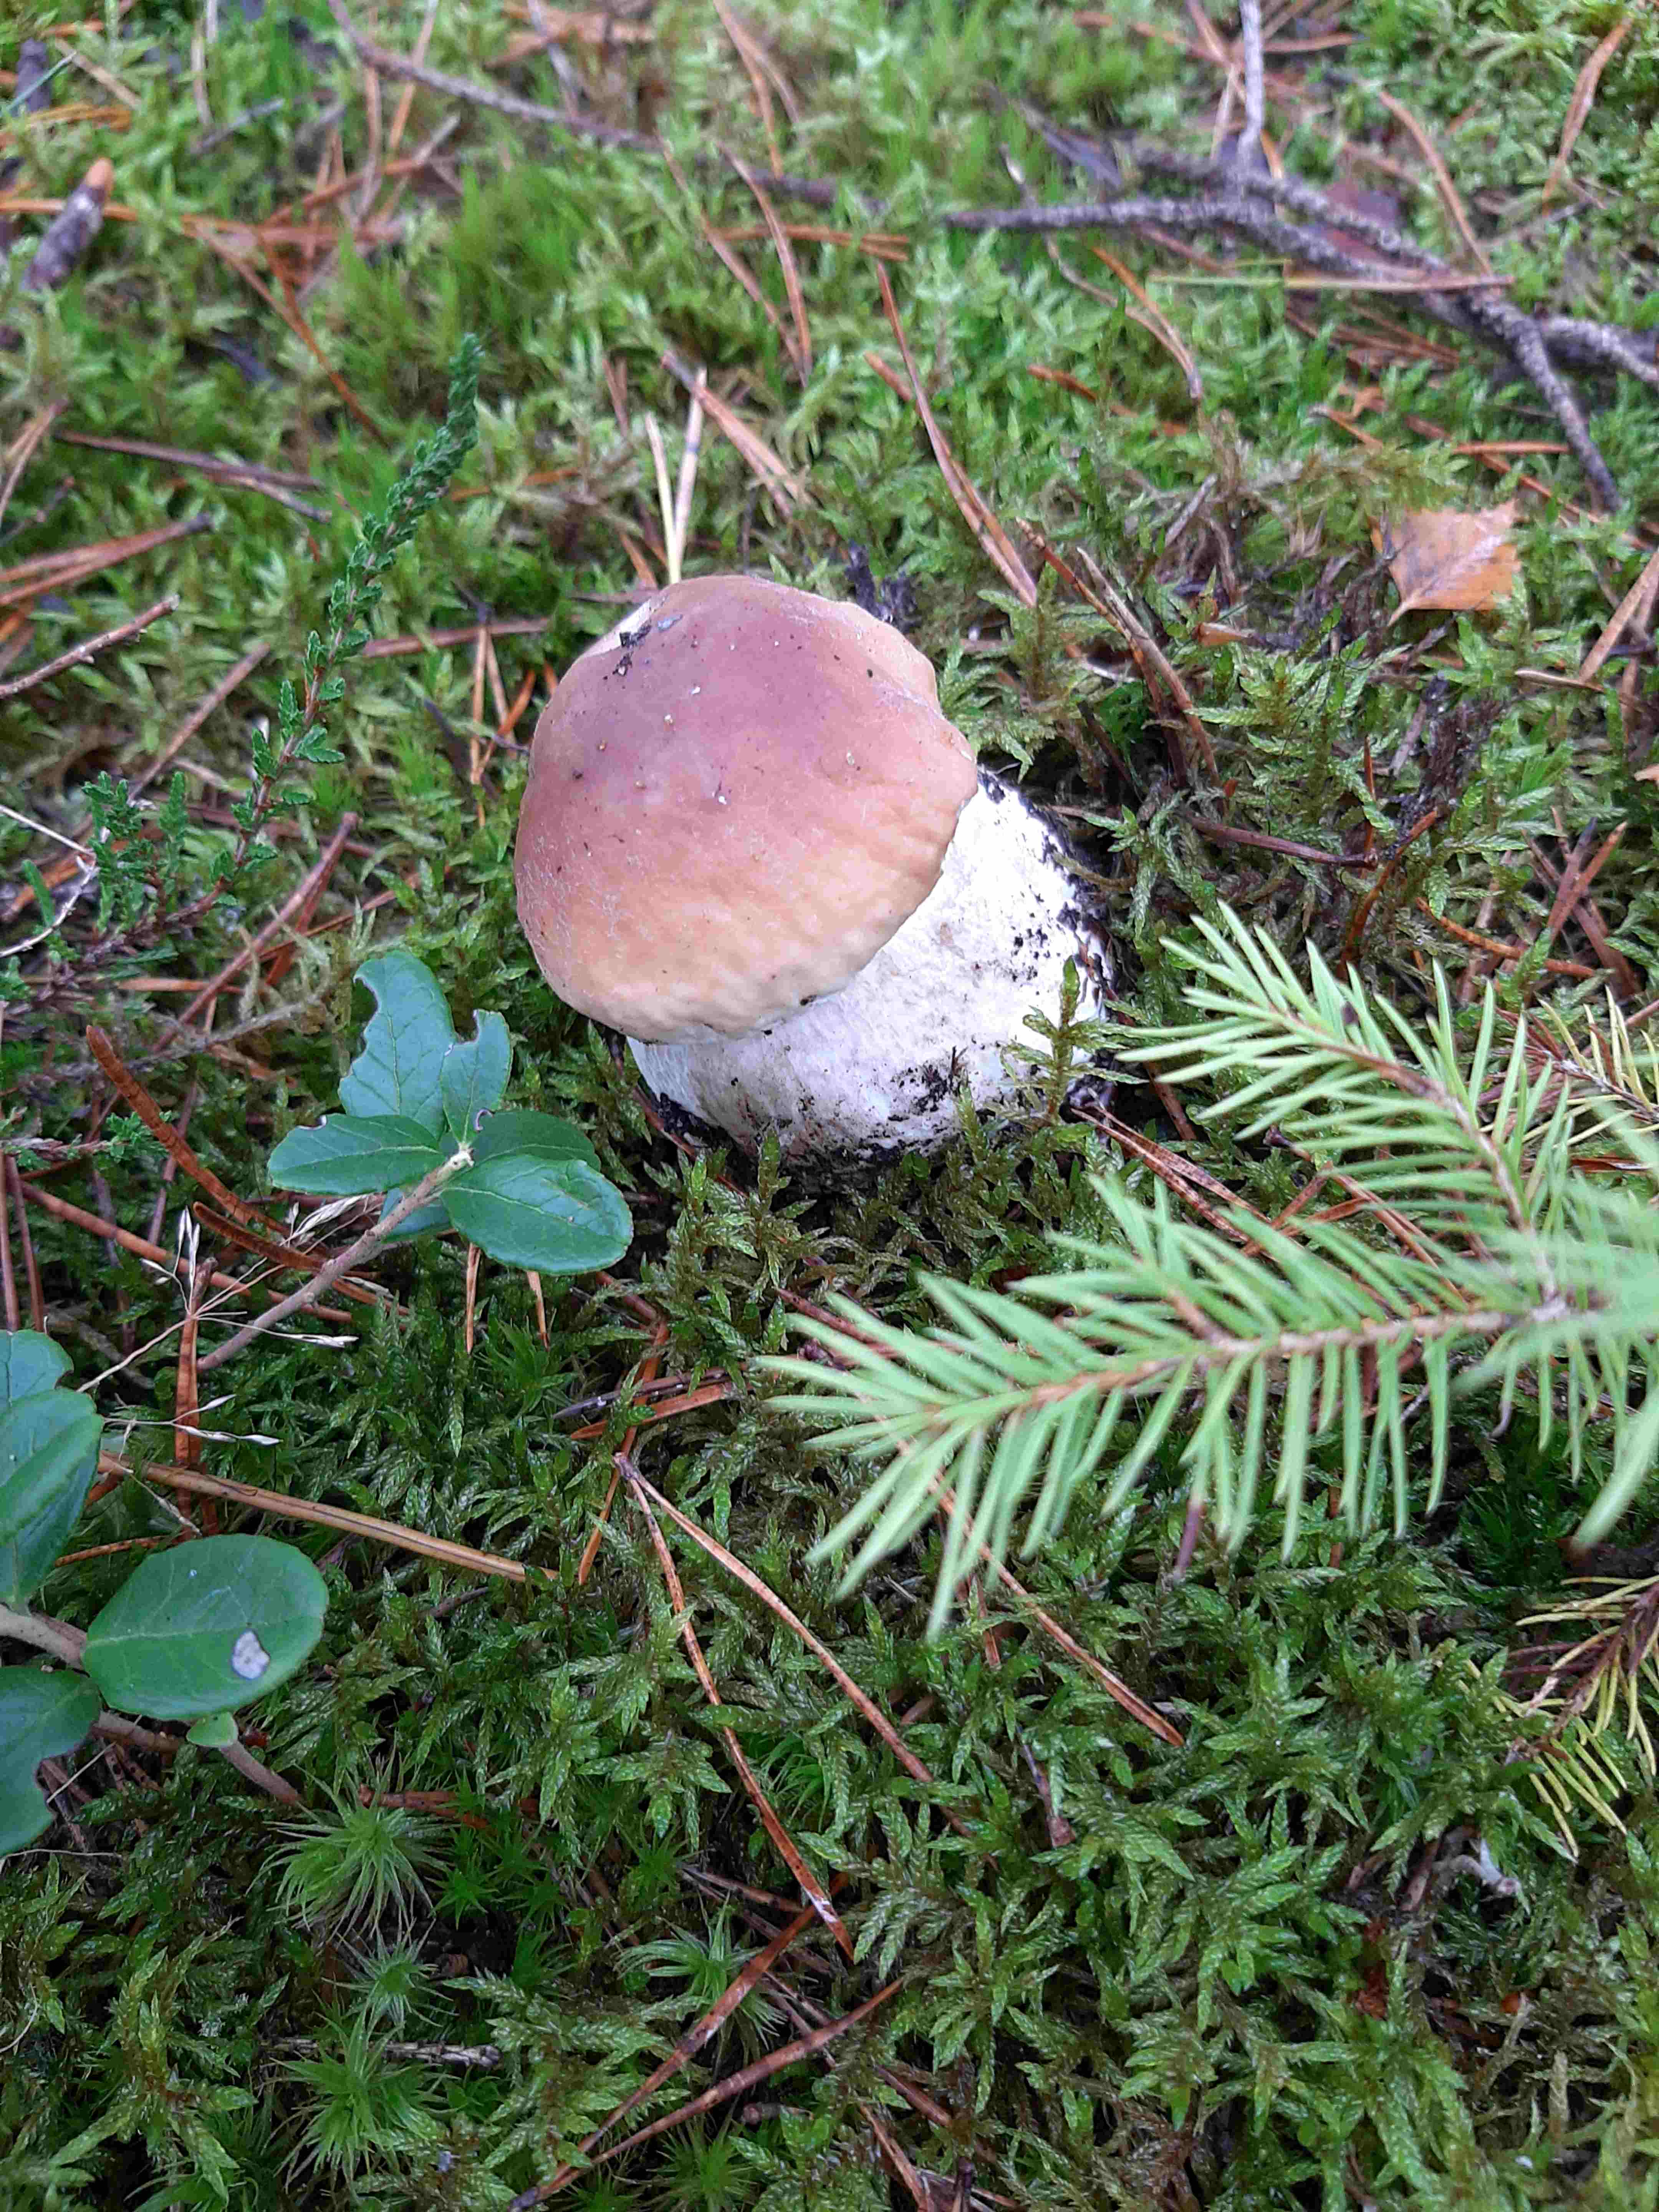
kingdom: Fungi
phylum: Basidiomycota
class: Agaricomycetes
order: Boletales
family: Boletaceae
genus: Boletus
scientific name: Boletus edulis
